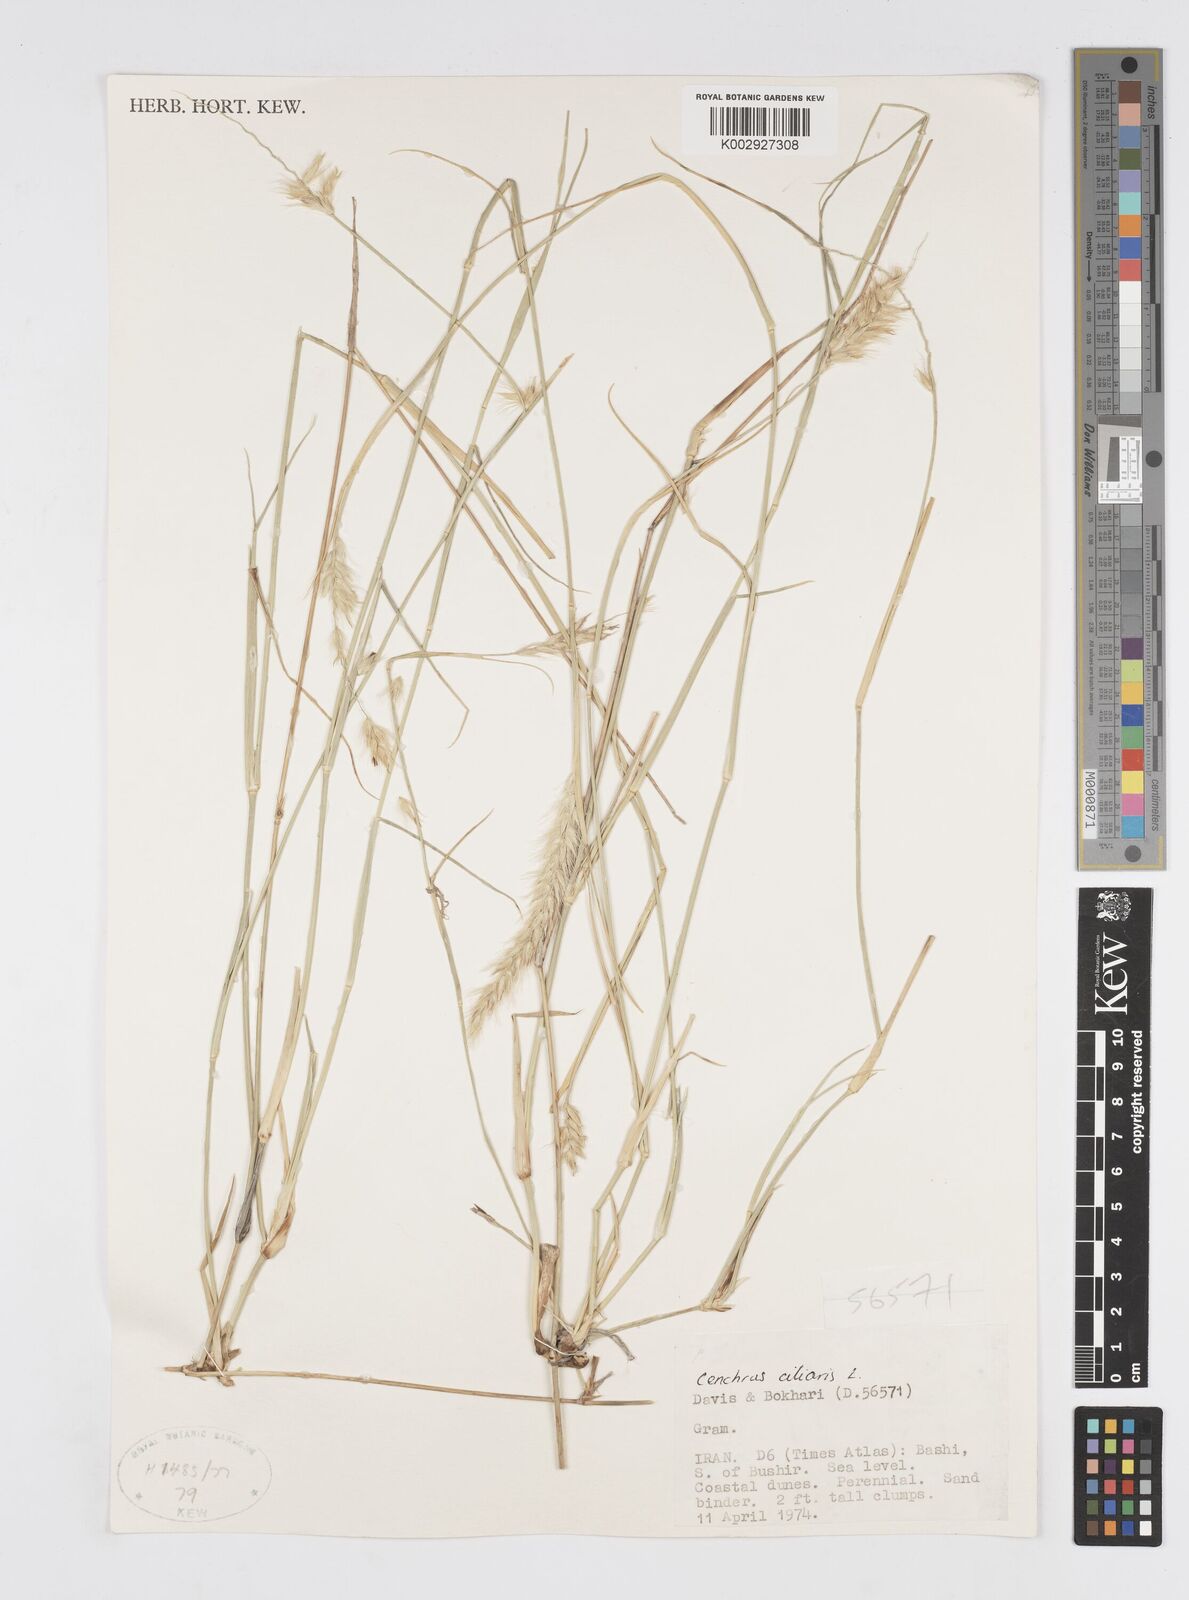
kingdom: Plantae
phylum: Tracheophyta
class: Liliopsida
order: Poales
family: Poaceae
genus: Cenchrus
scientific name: Cenchrus ciliaris
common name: Buffelgrass
